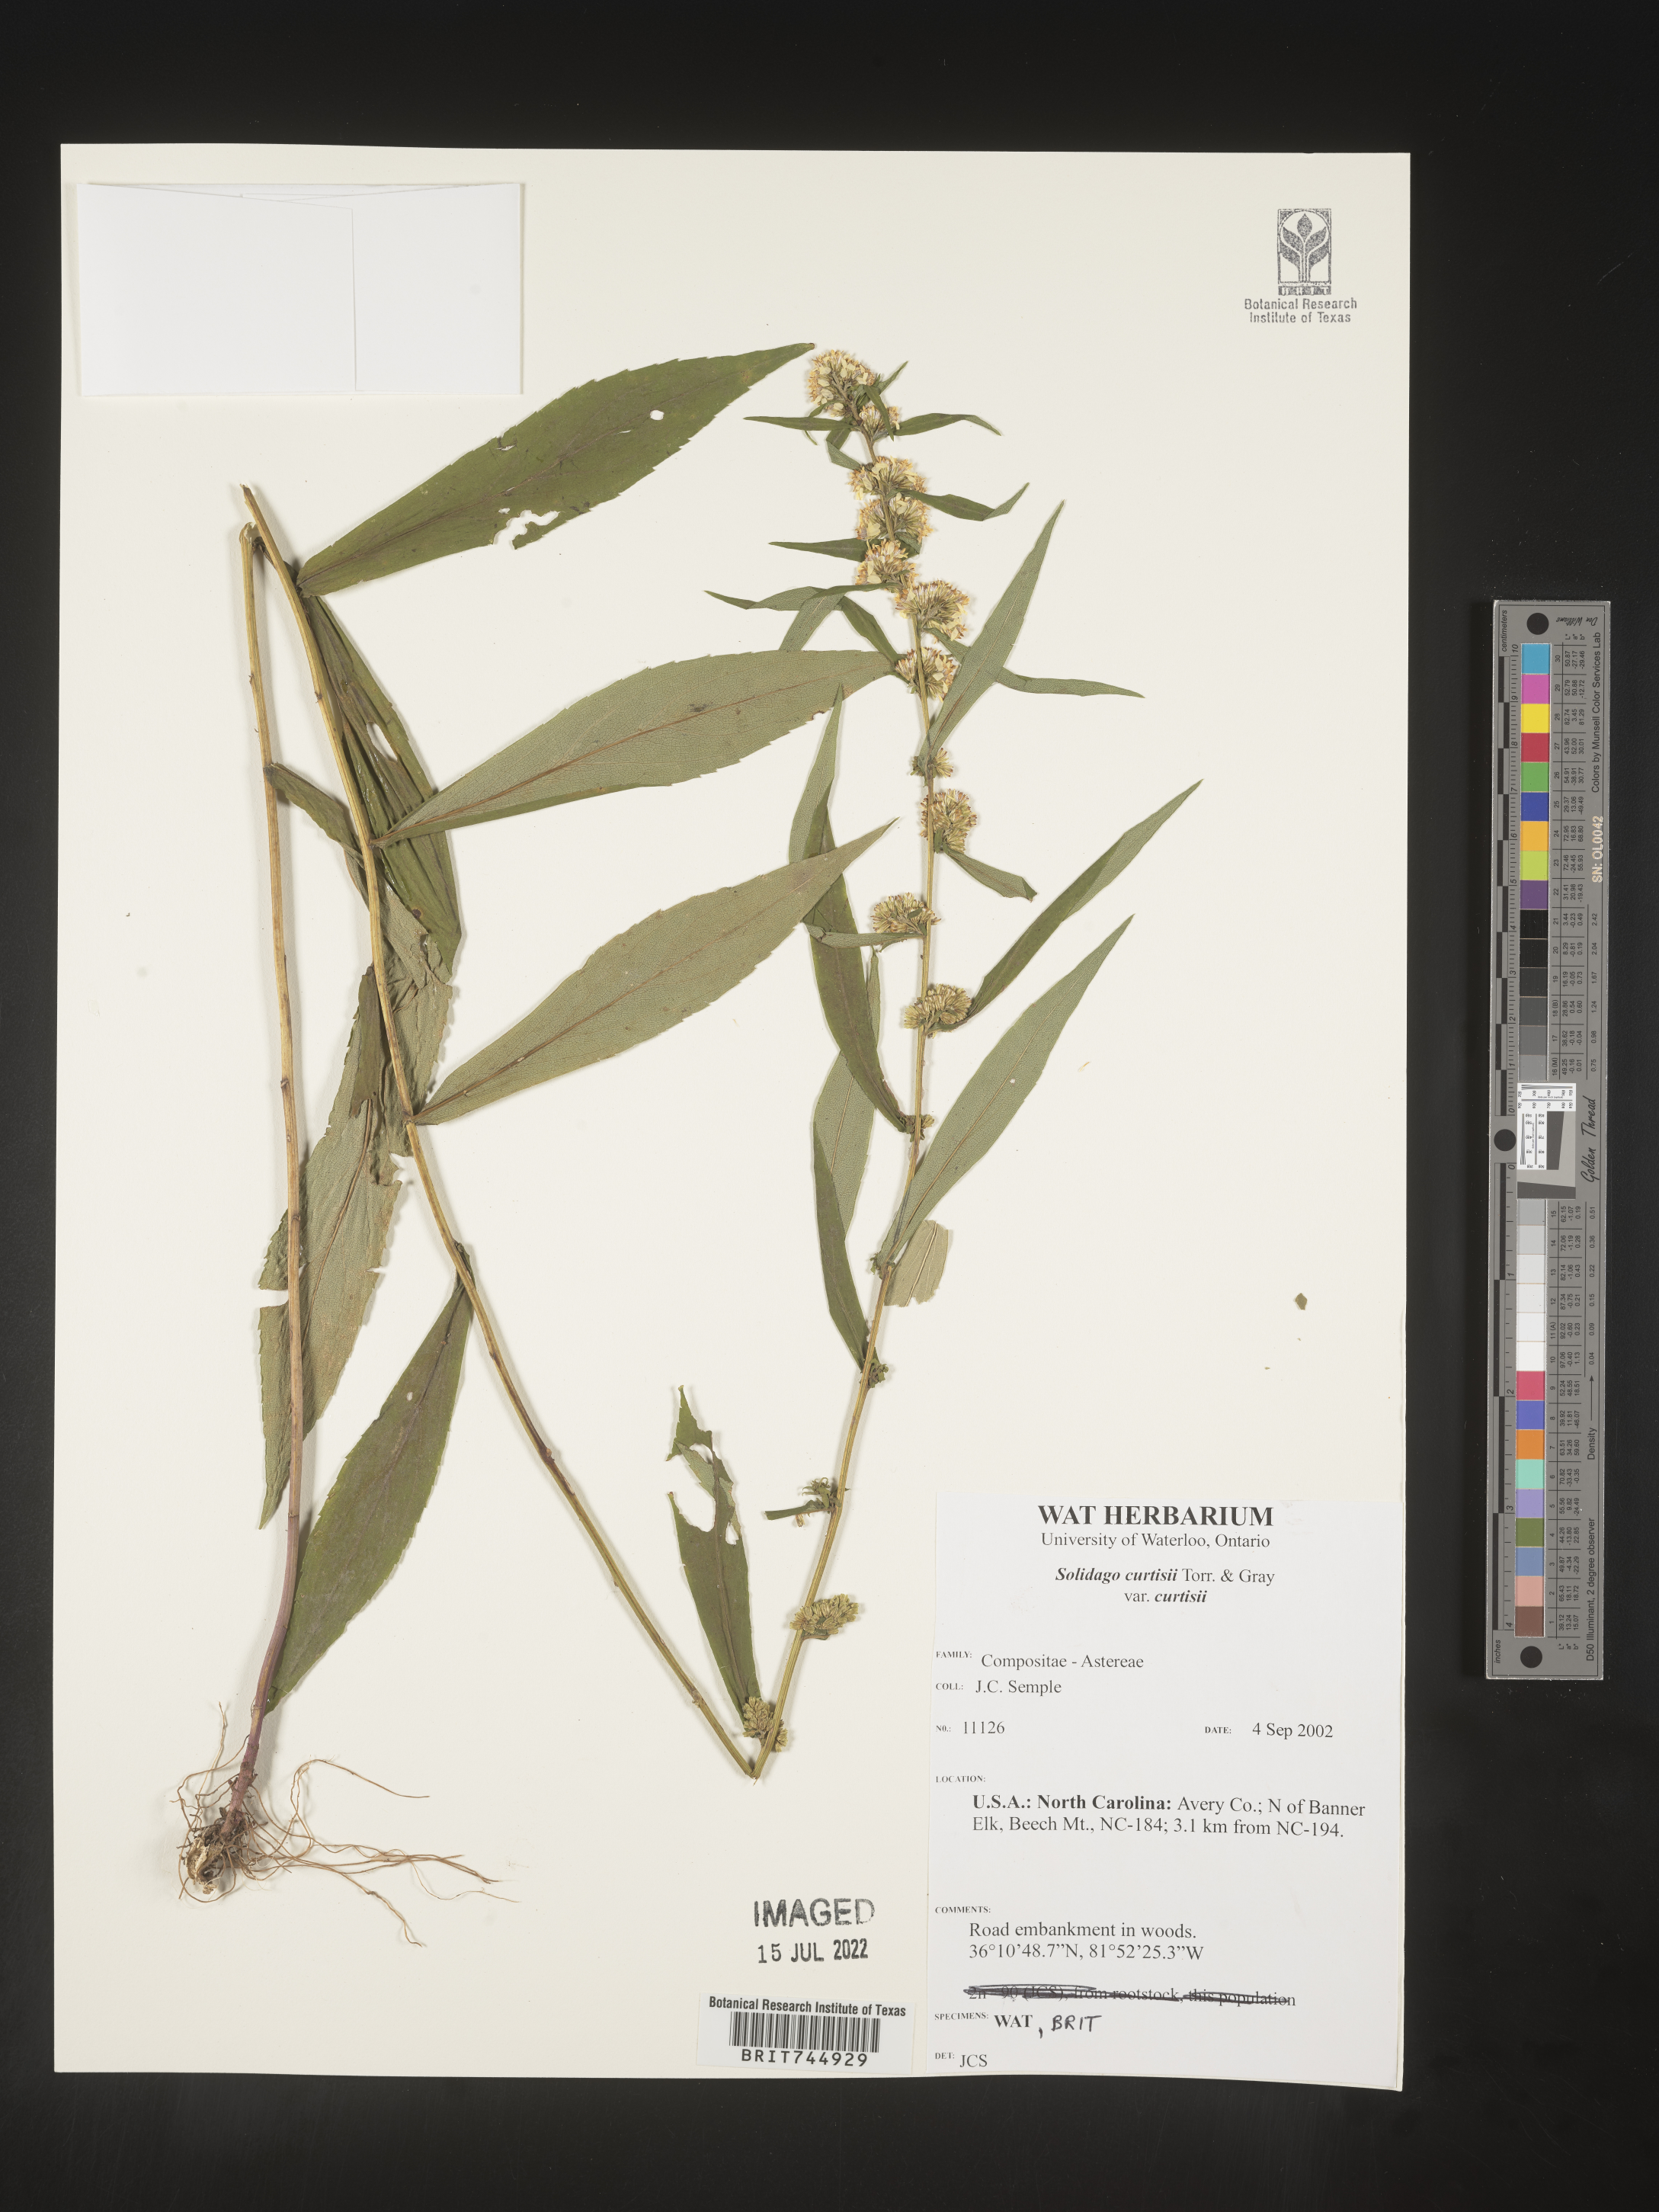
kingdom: Plantae
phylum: Tracheophyta
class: Magnoliopsida
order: Asterales
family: Asteraceae
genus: Solidago
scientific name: Solidago
